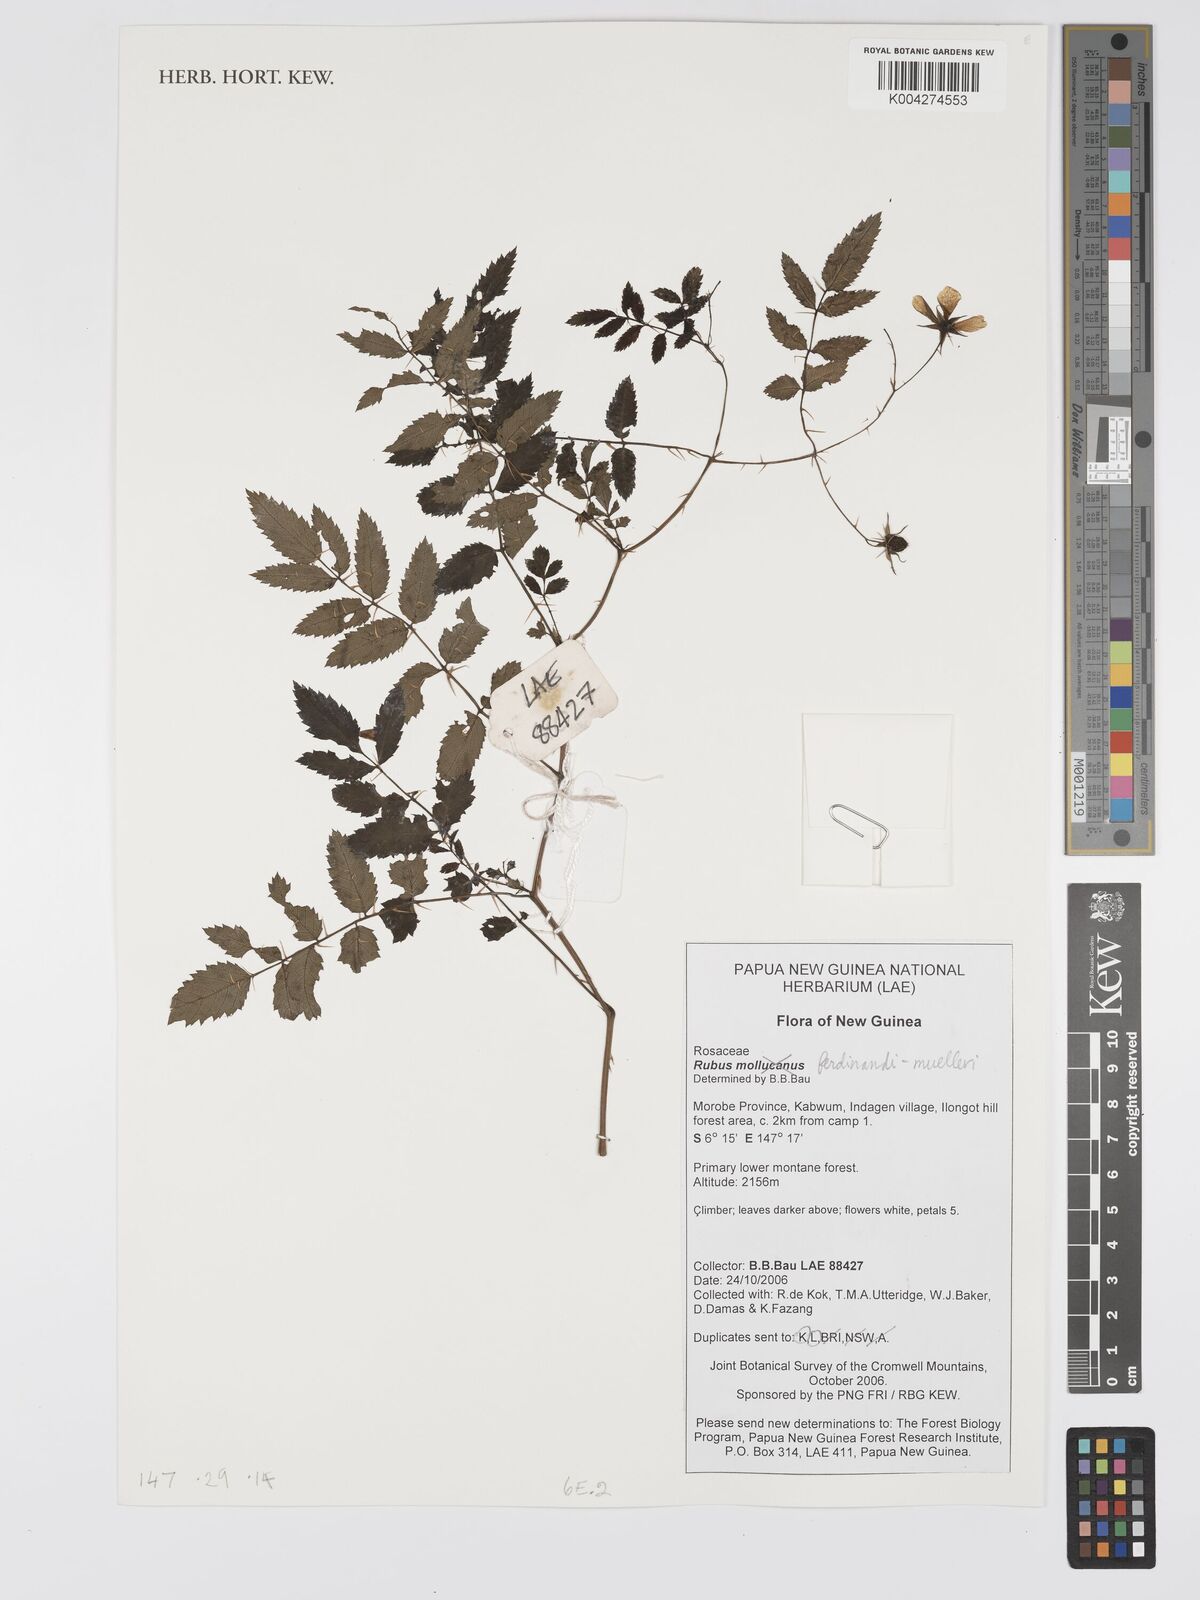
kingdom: Plantae
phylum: Tracheophyta
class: Magnoliopsida
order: Rosales
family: Rosaceae
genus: Rubus
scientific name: Rubus ferdinandimuelleri
